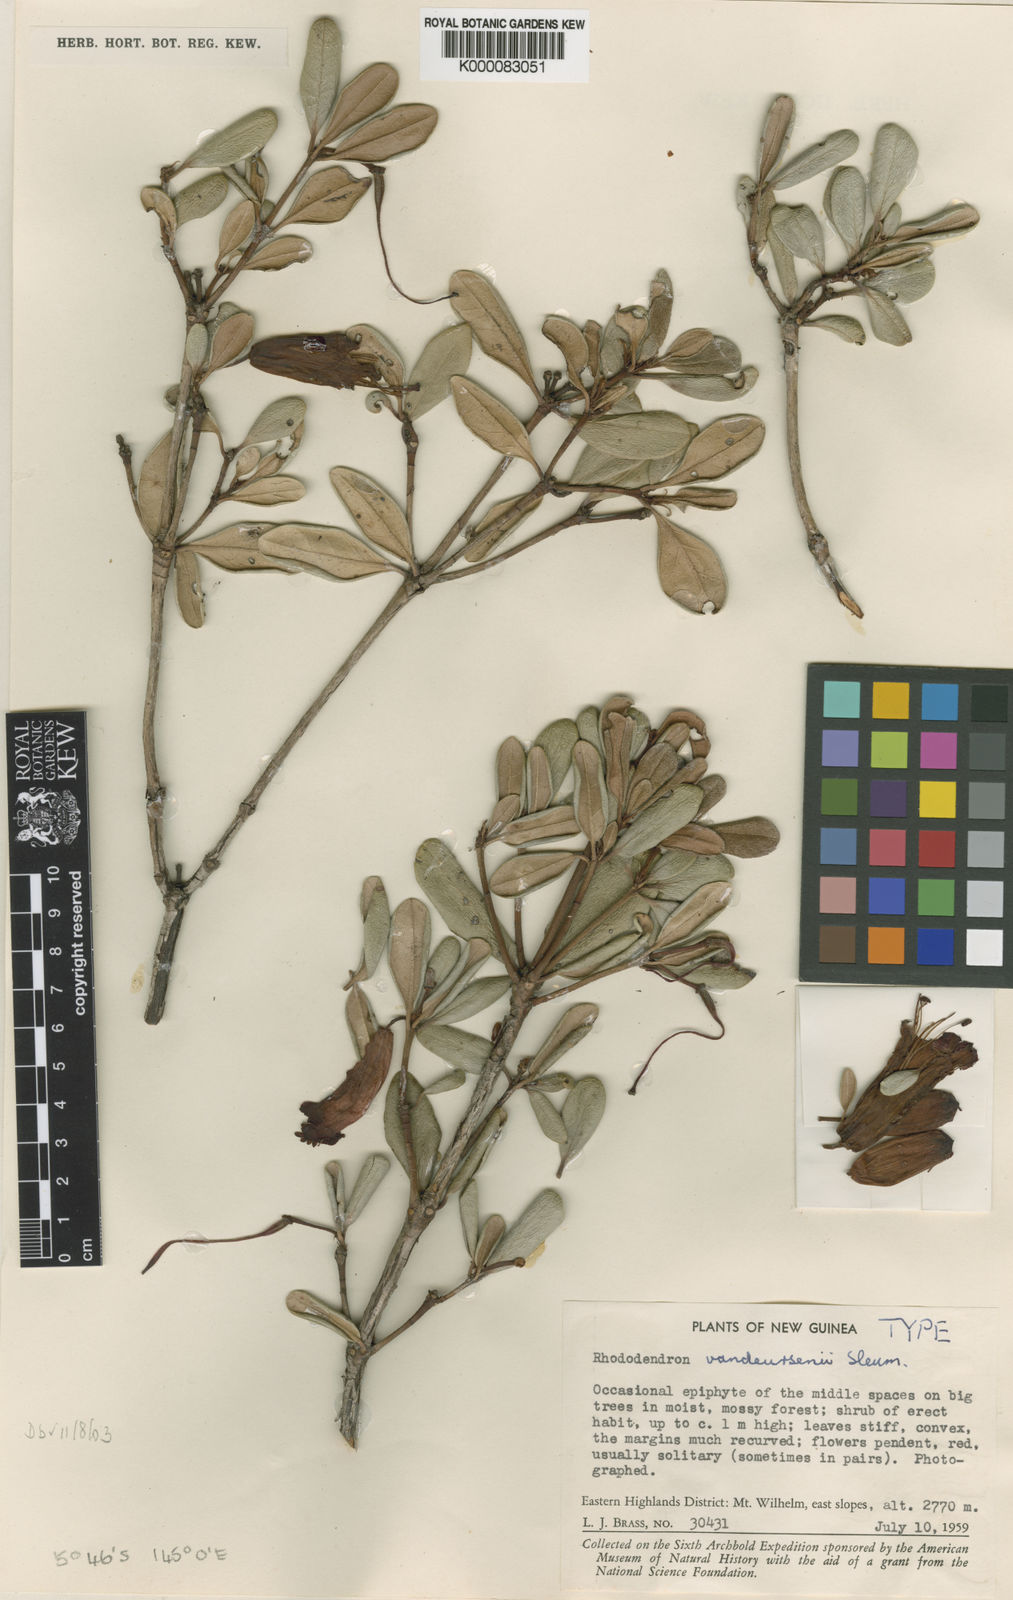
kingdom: Plantae
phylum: Tracheophyta
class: Magnoliopsida
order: Ericales
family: Ericaceae
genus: Rhododendron
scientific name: Rhododendron vitis-idaea
